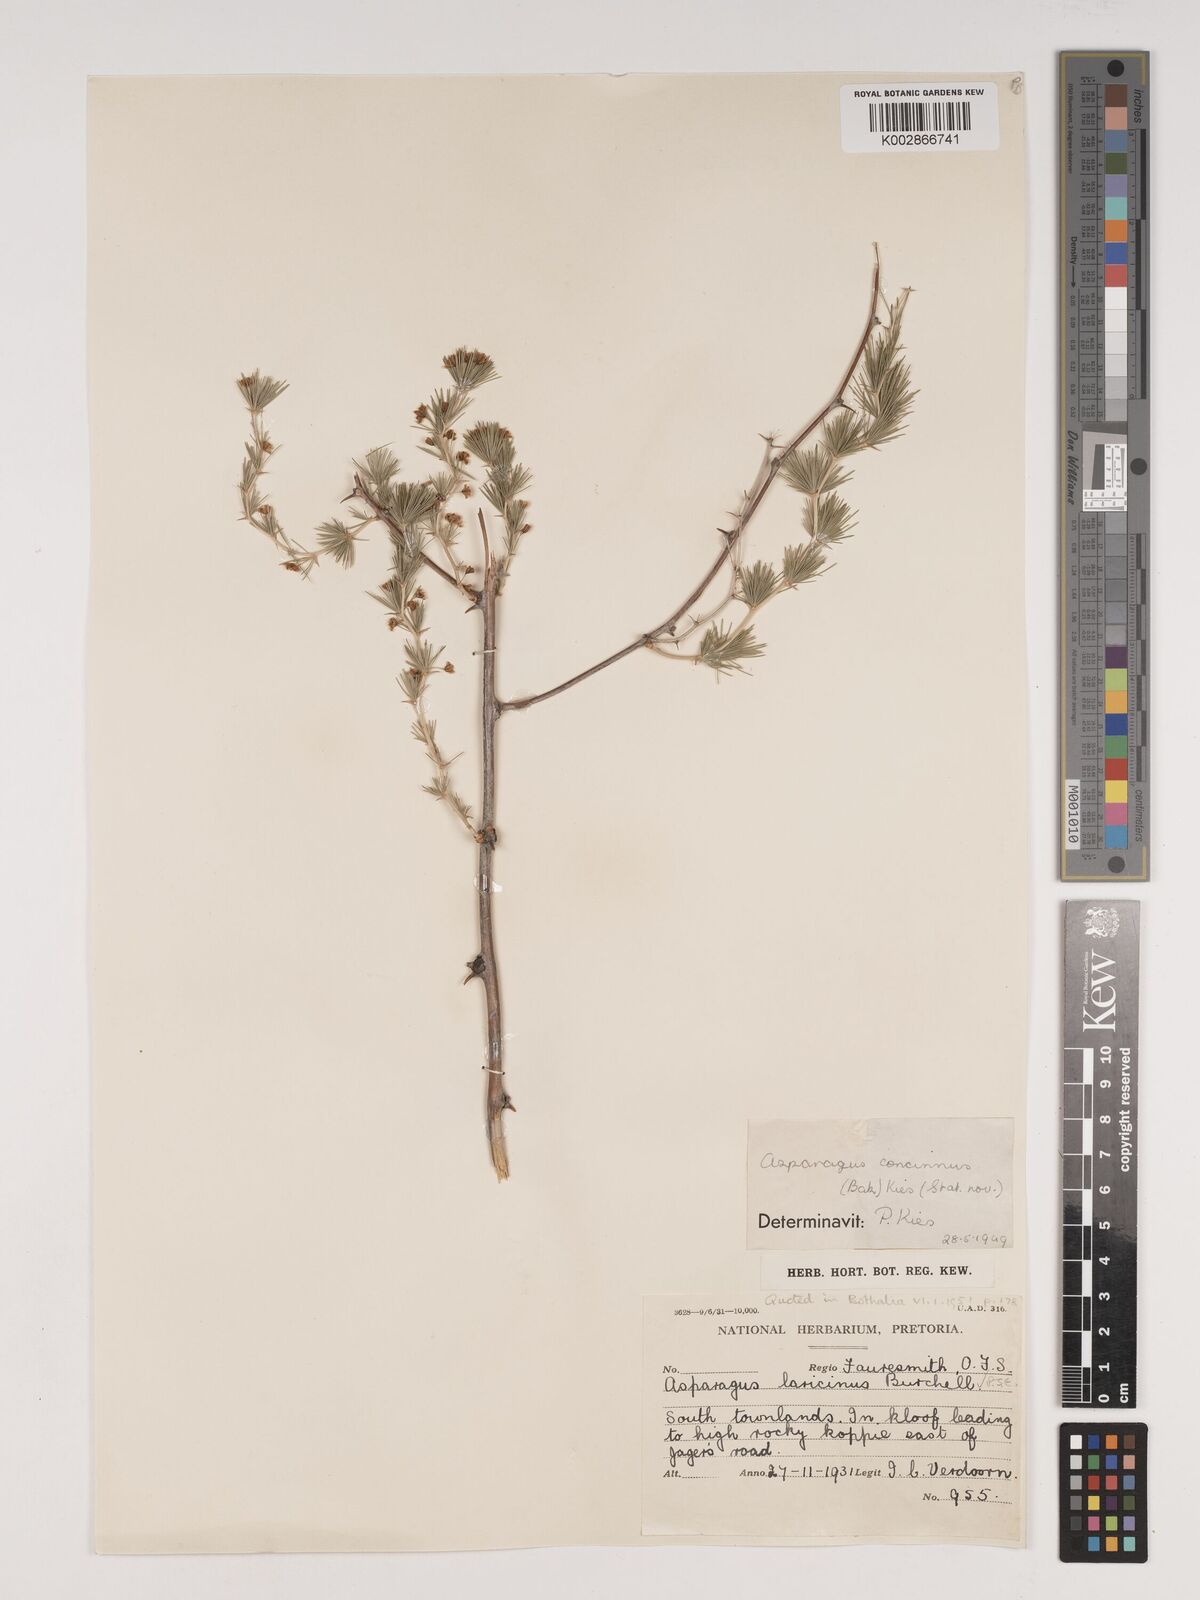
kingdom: Plantae
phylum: Tracheophyta
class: Liliopsida
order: Asparagales
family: Asparagaceae
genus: Asparagus
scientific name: Asparagus laricinus
